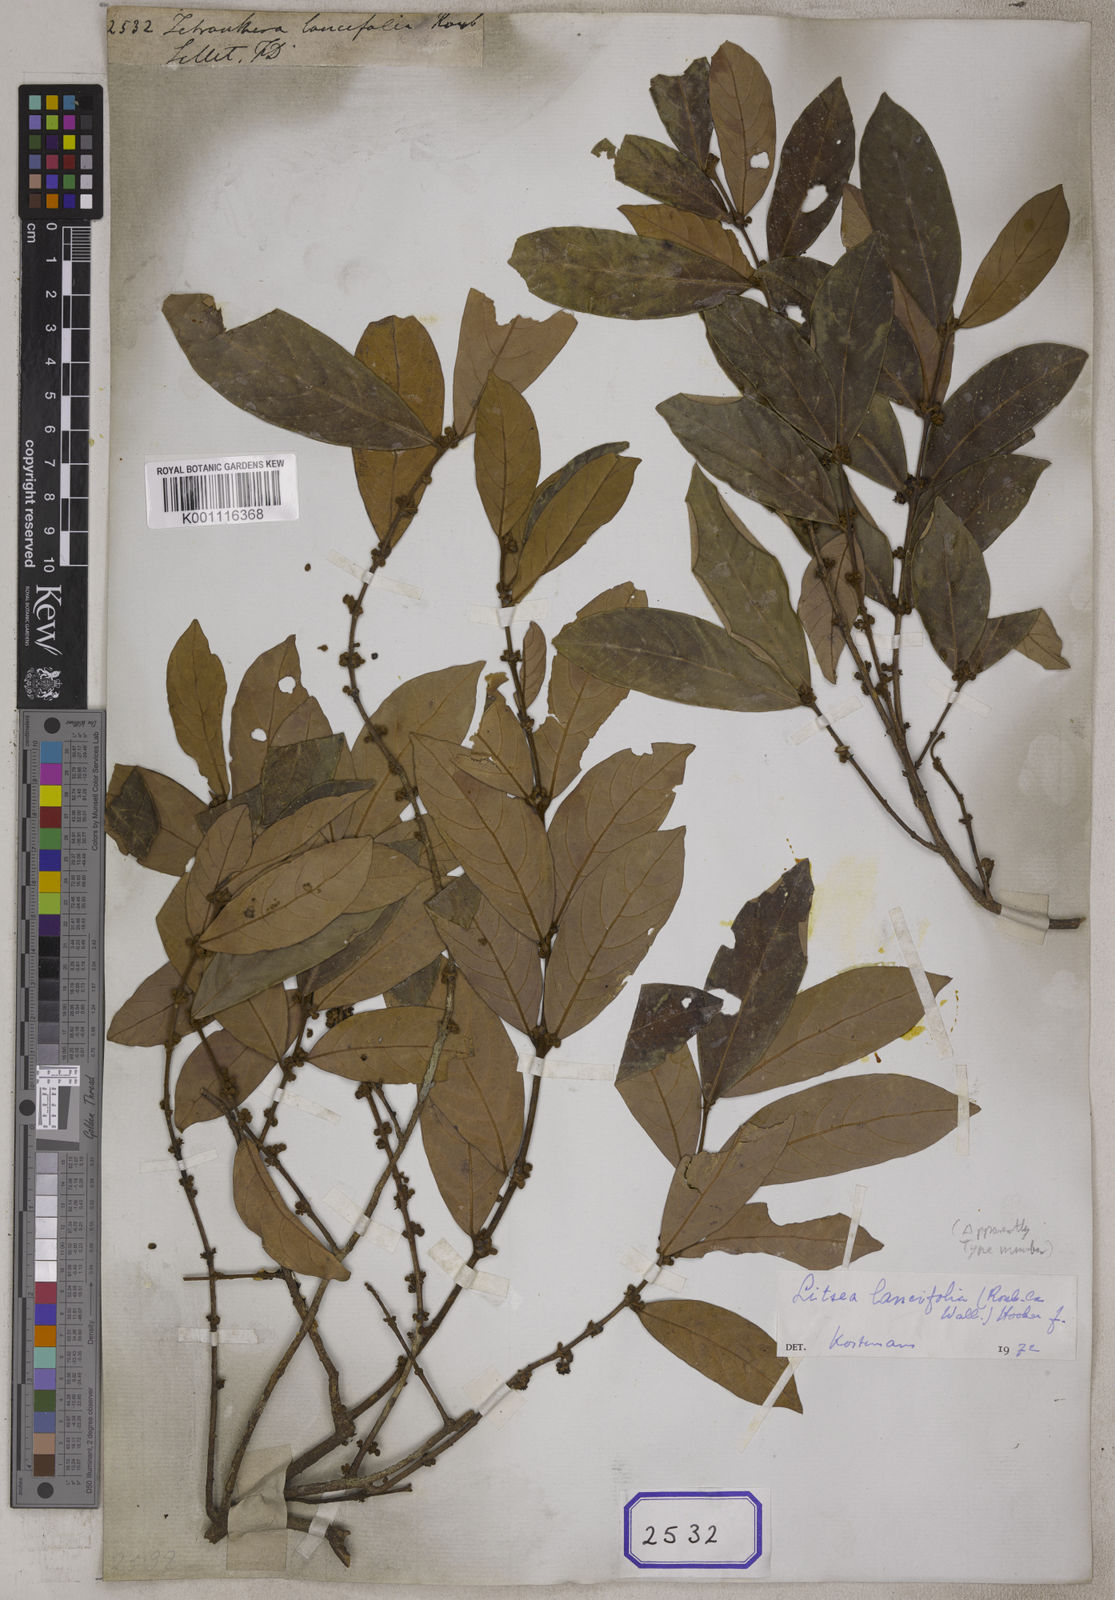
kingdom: Plantae
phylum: Tracheophyta
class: Magnoliopsida
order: Laurales
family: Lauraceae
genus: Litsea
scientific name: Litsea
